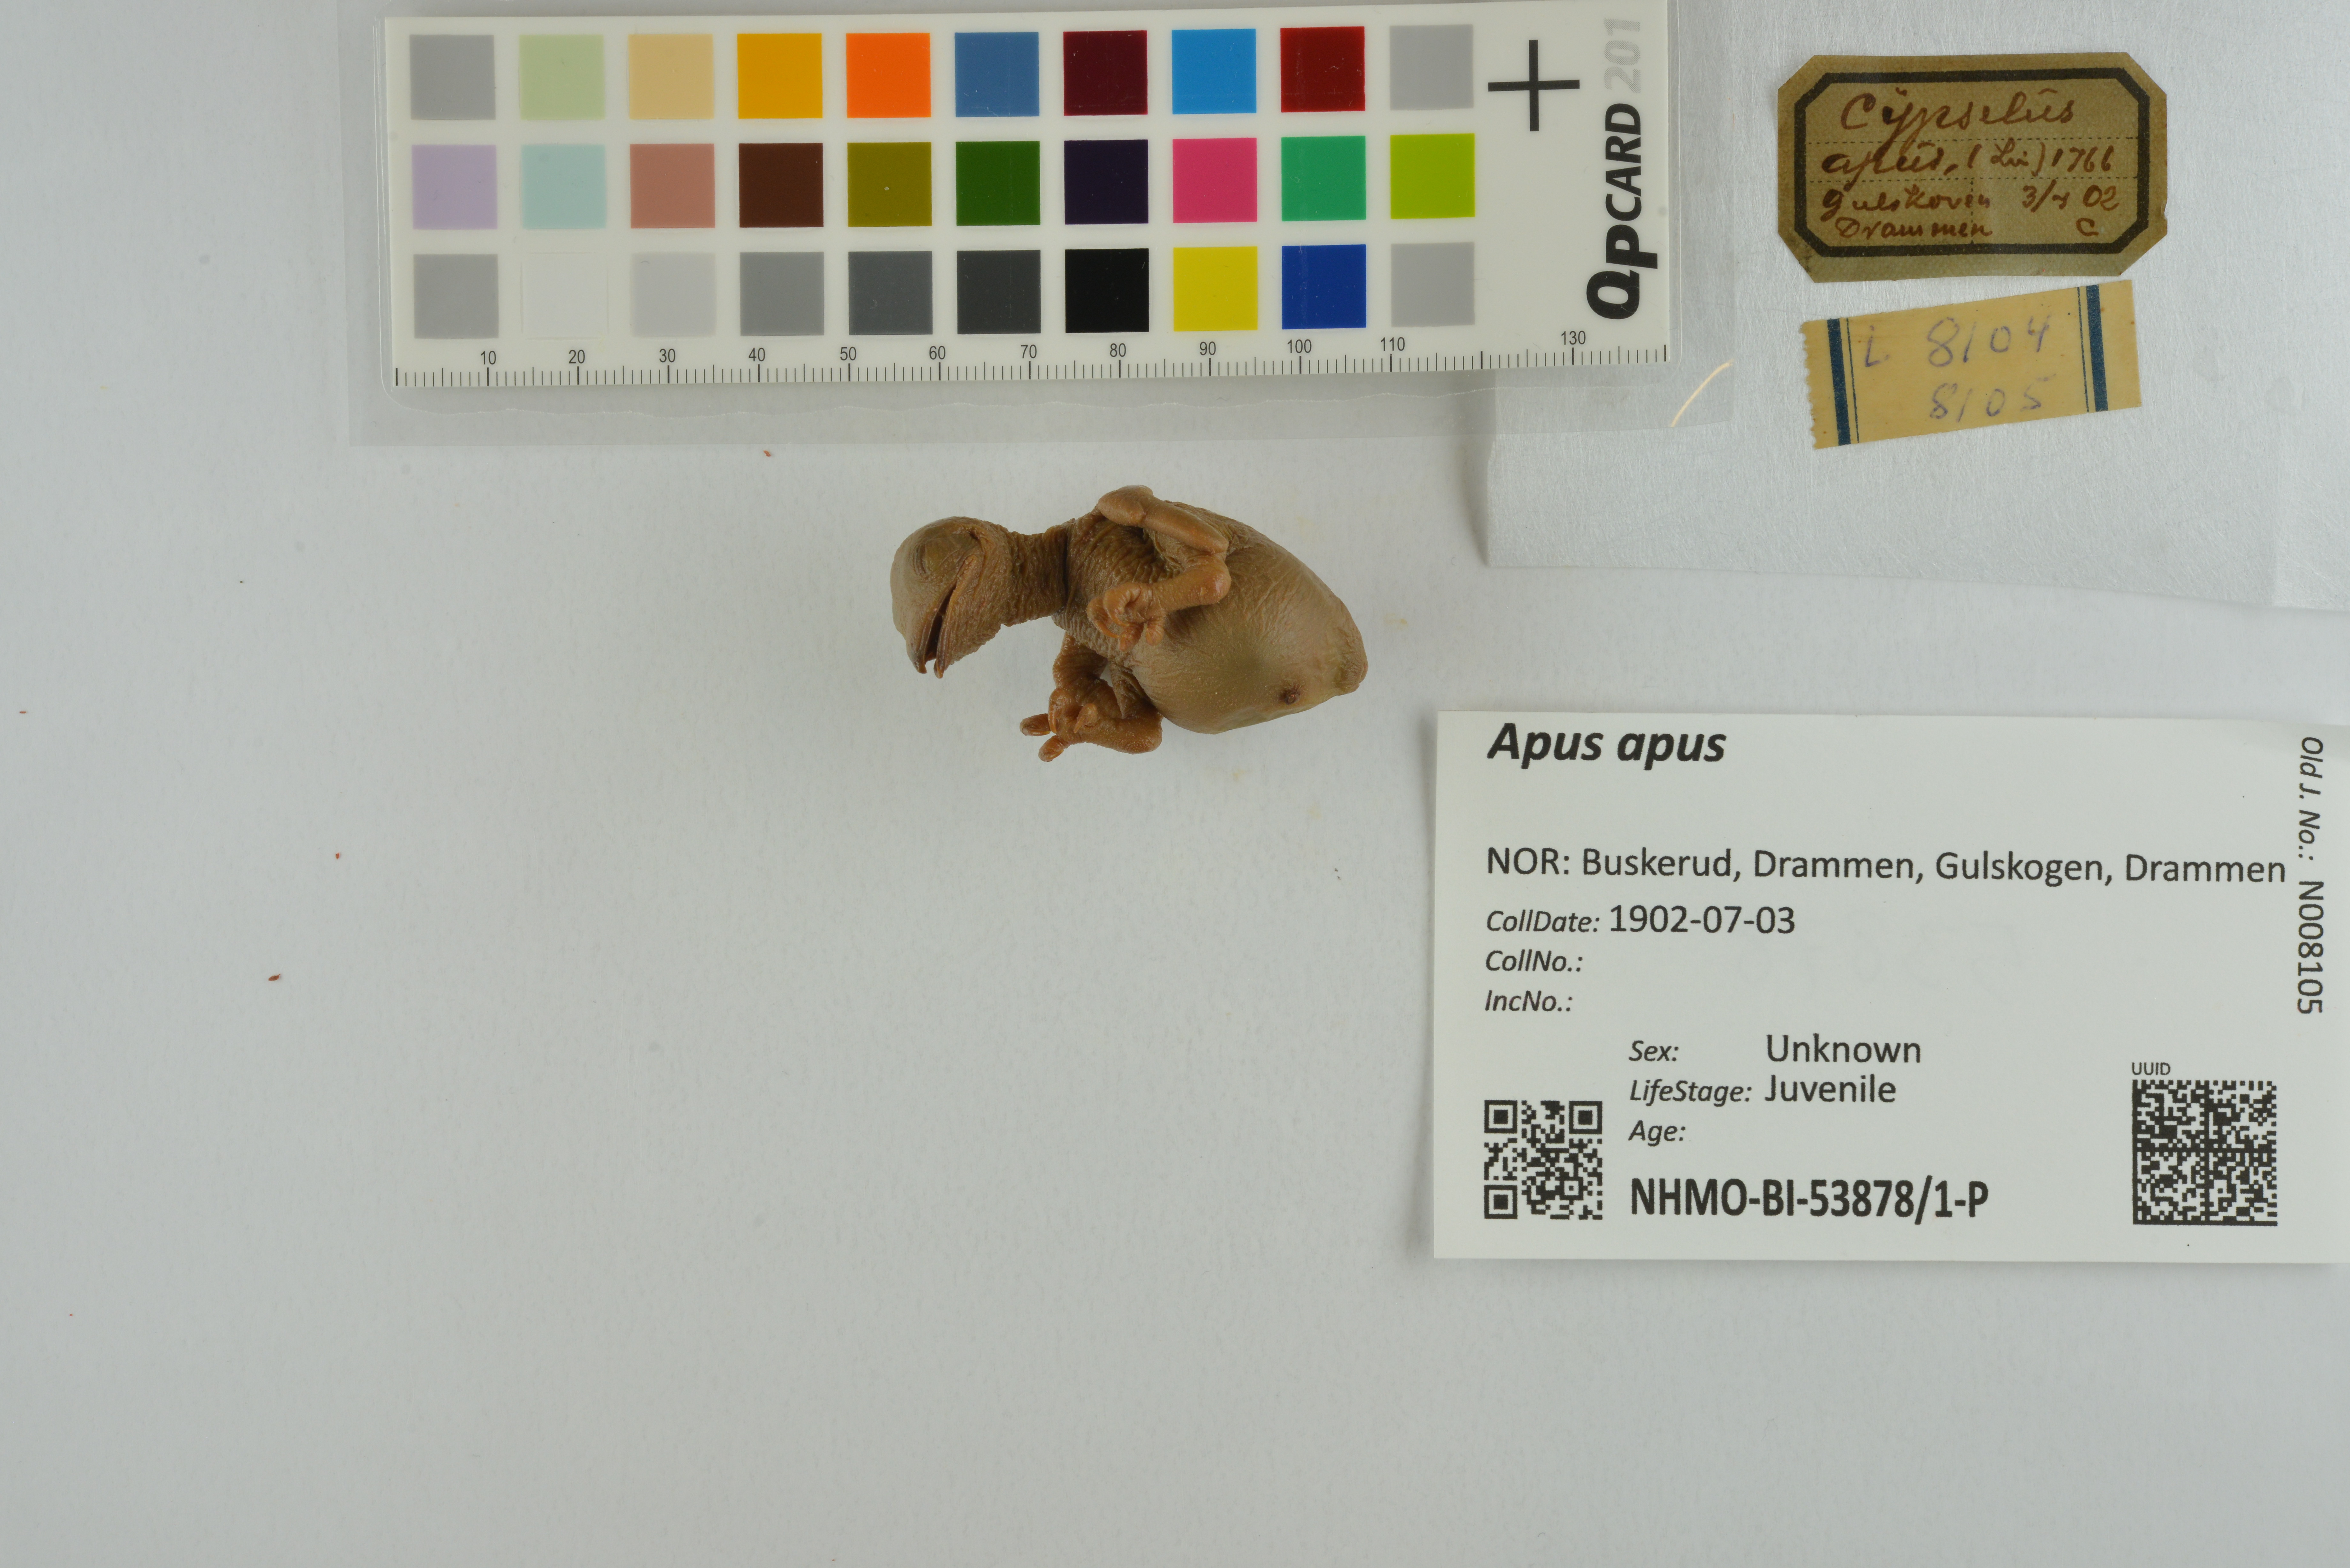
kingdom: Animalia
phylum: Chordata
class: Aves
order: Apodiformes
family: Apodidae
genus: Apus
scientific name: Apus apus
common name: Common swift
